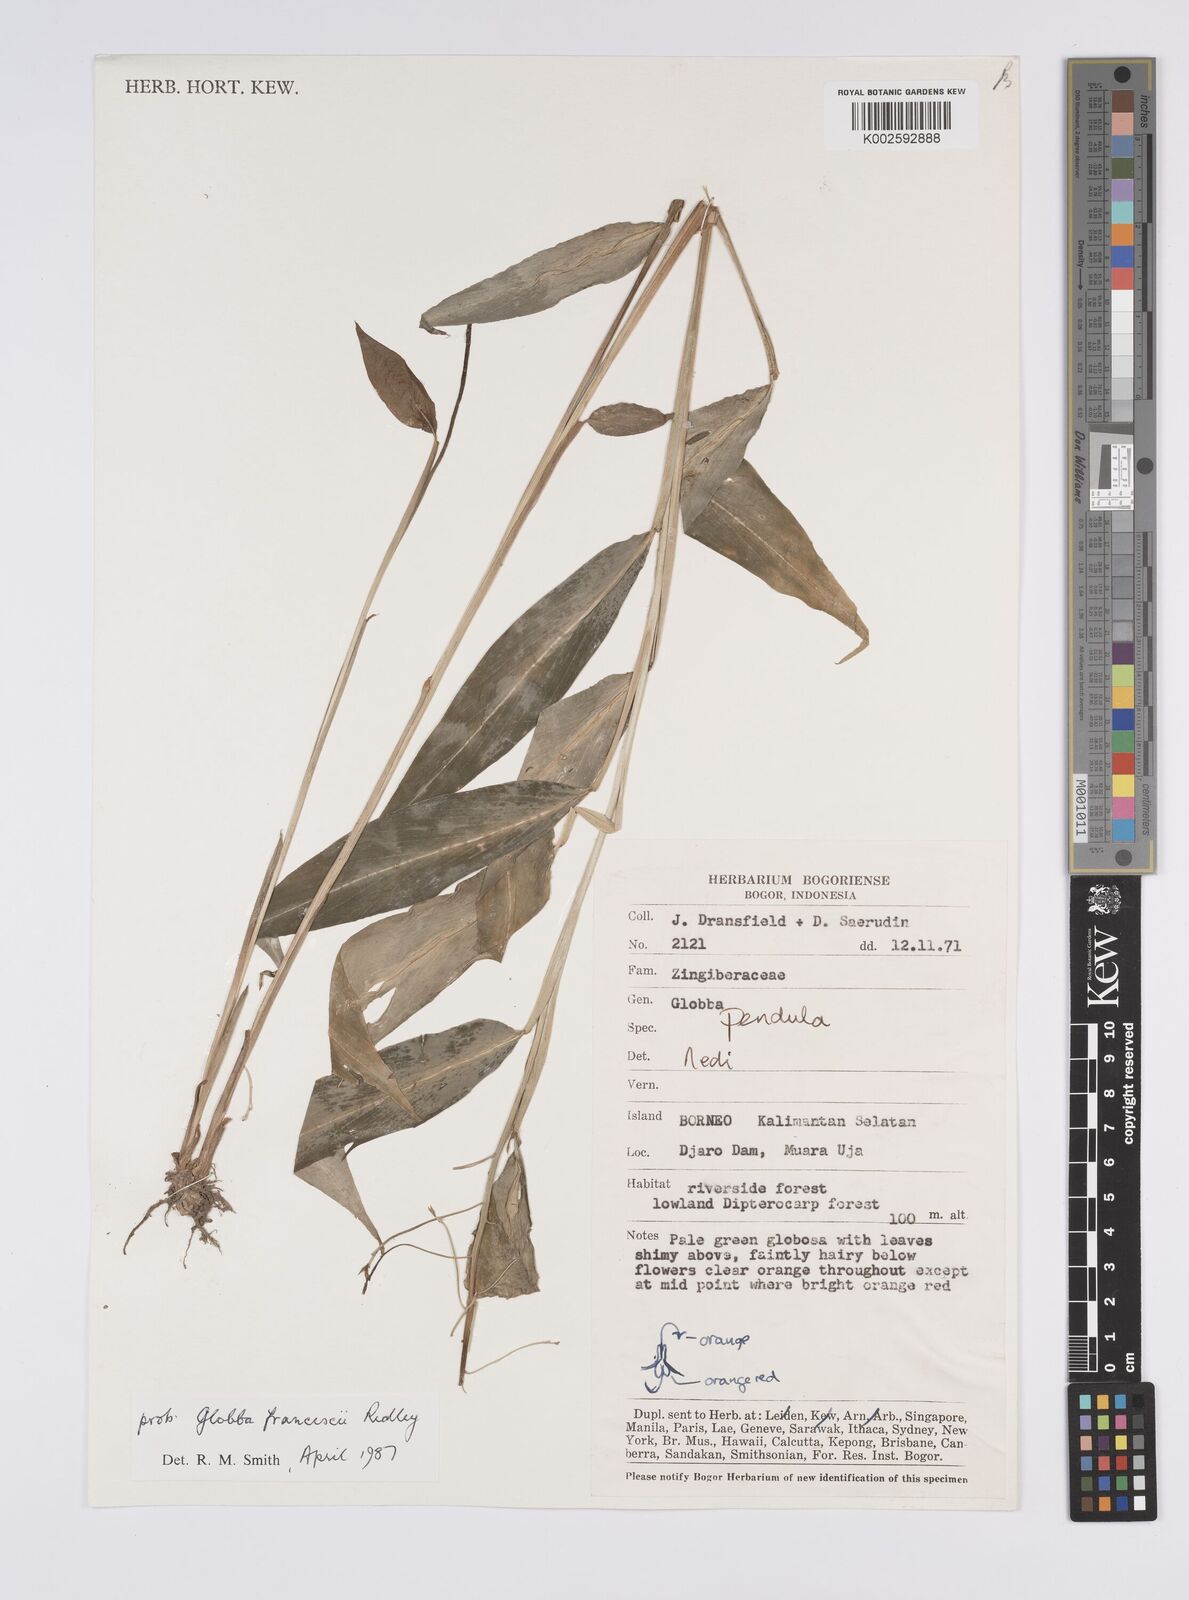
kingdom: Plantae
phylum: Tracheophyta
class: Liliopsida
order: Zingiberales
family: Zingiberaceae
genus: Globba
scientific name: Globba francisci
